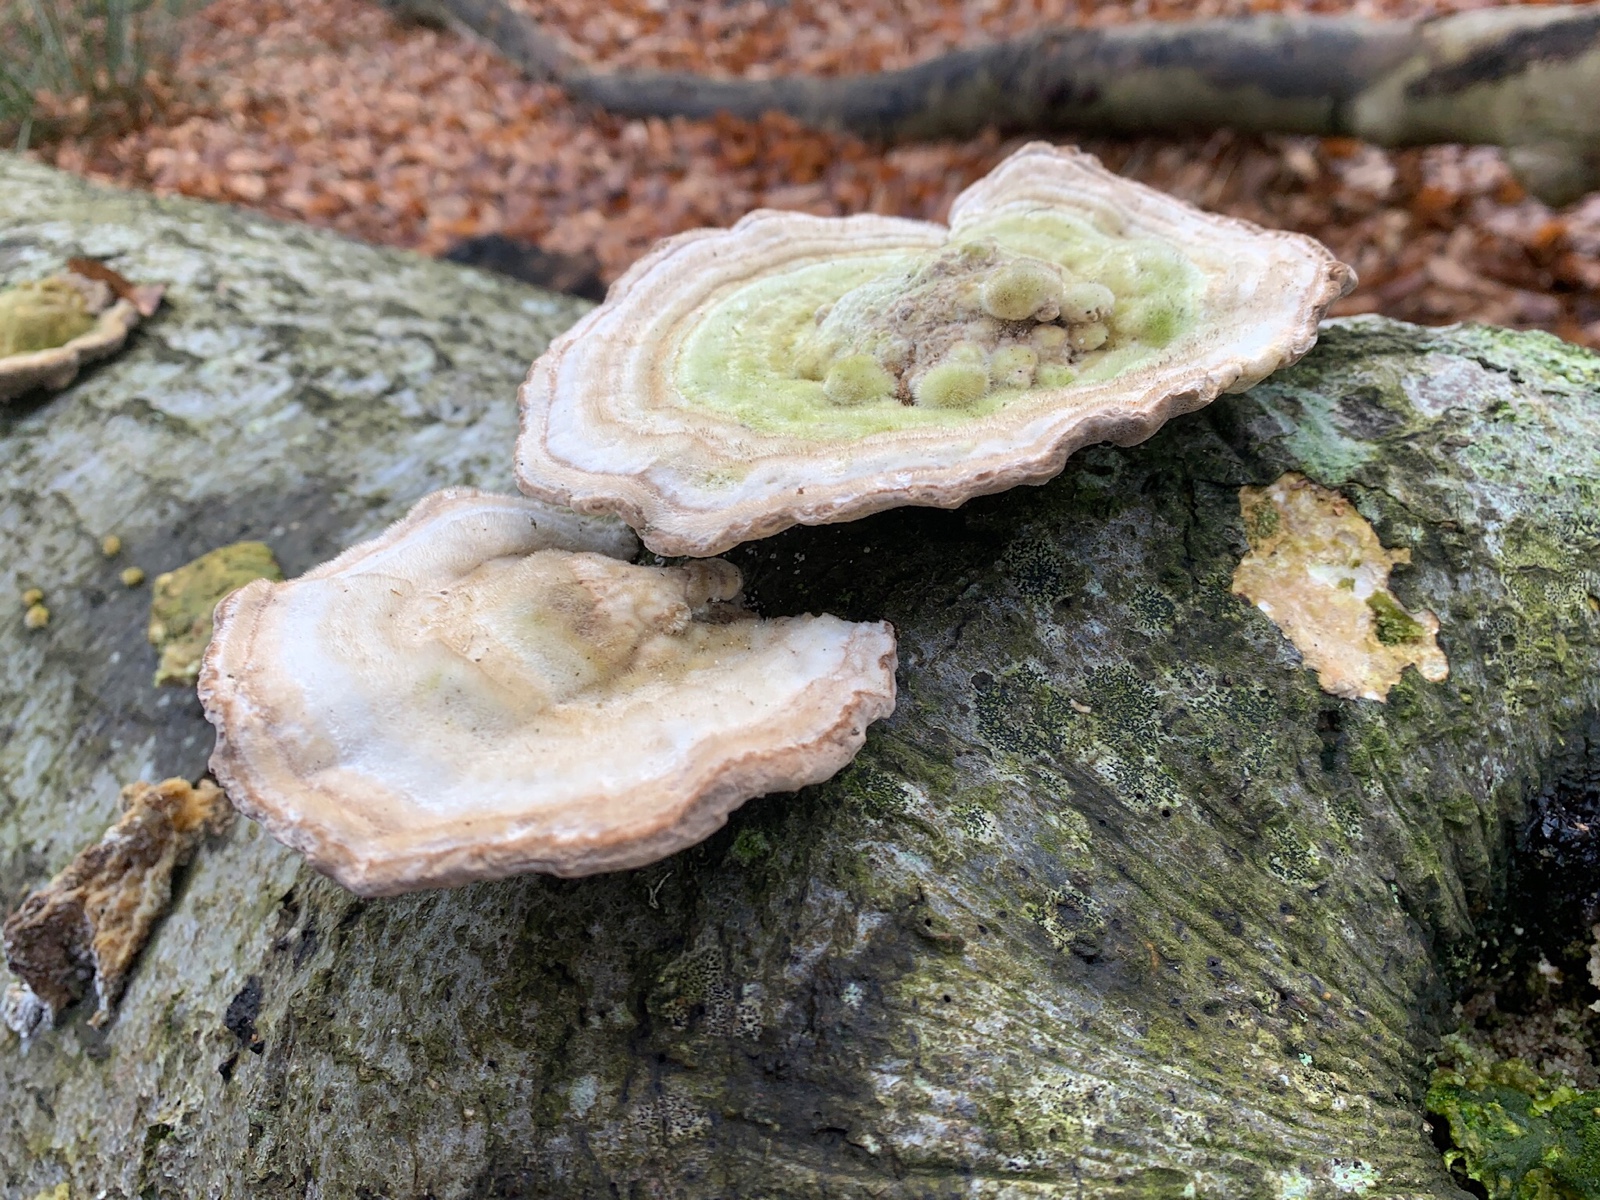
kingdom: Fungi
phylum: Basidiomycota
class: Agaricomycetes
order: Polyporales
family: Polyporaceae
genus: Trametes
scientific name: Trametes hirsuta
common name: håret læderporesvamp
